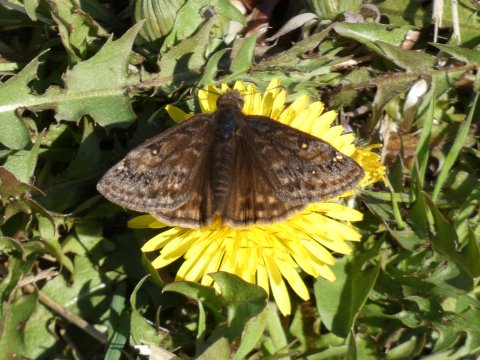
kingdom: Animalia
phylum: Arthropoda
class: Insecta
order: Lepidoptera
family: Hesperiidae
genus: Gesta
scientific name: Gesta
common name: Juvenal's Duskywing
